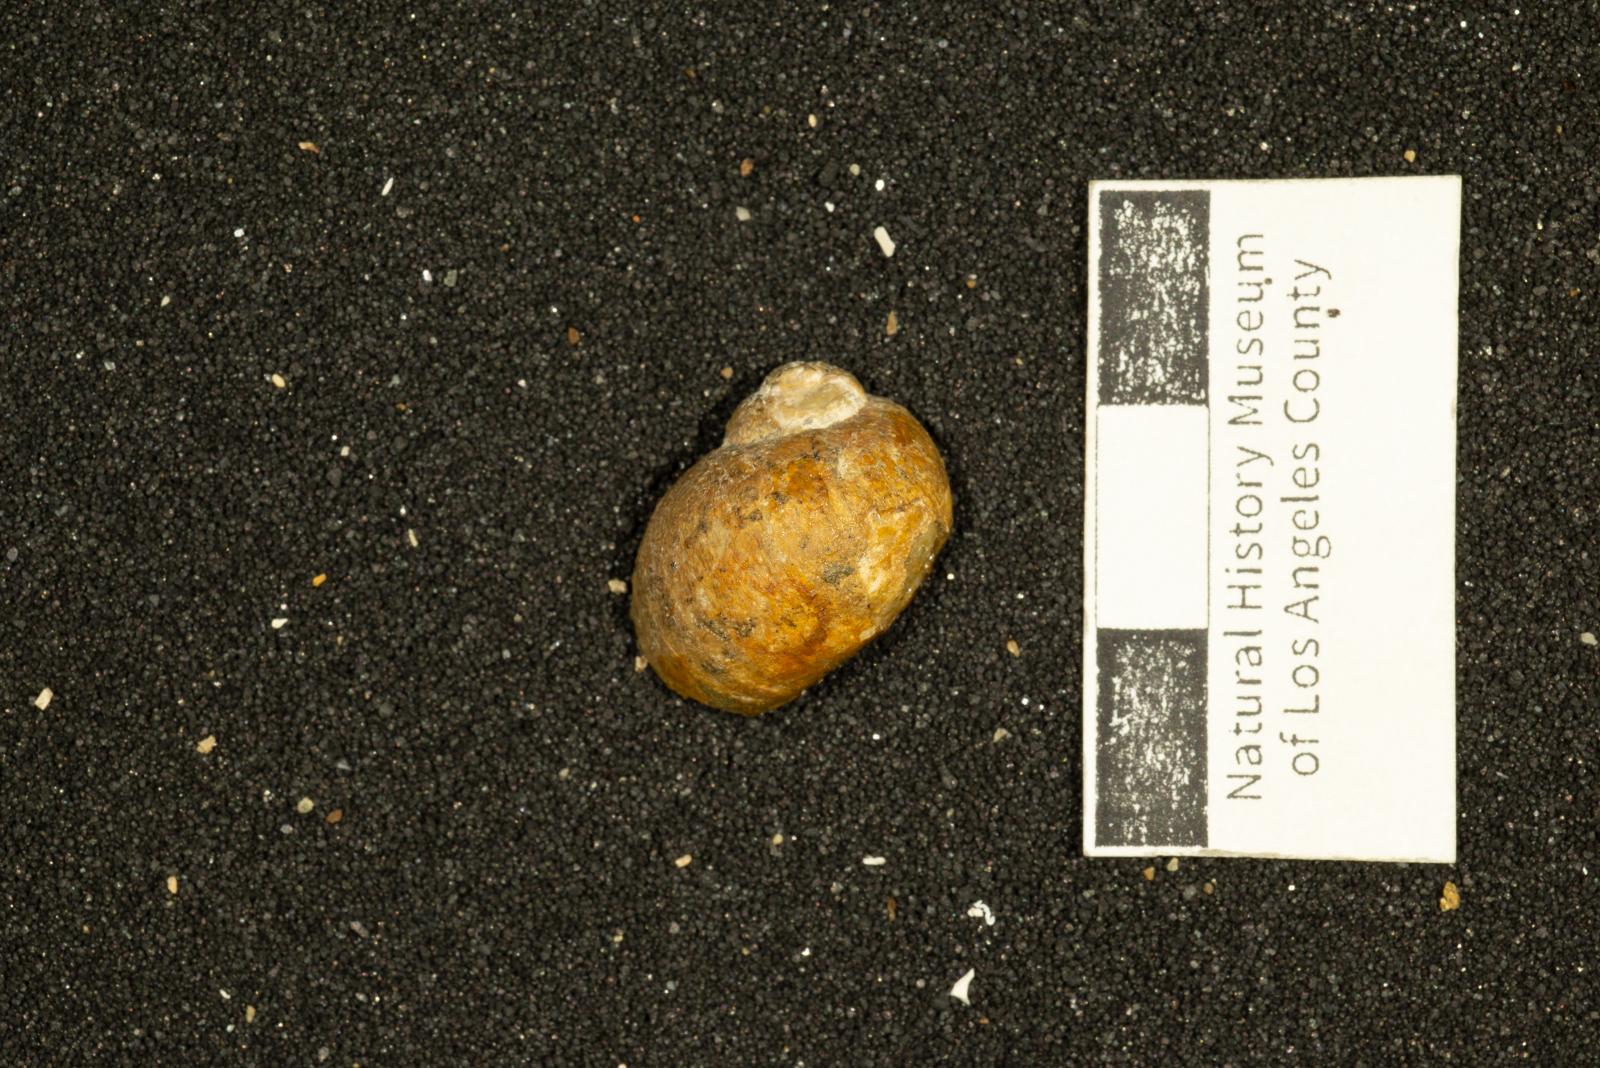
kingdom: Animalia
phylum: Mollusca
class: Gastropoda
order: Littorinimorpha
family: Naticidae
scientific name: Naticidae
